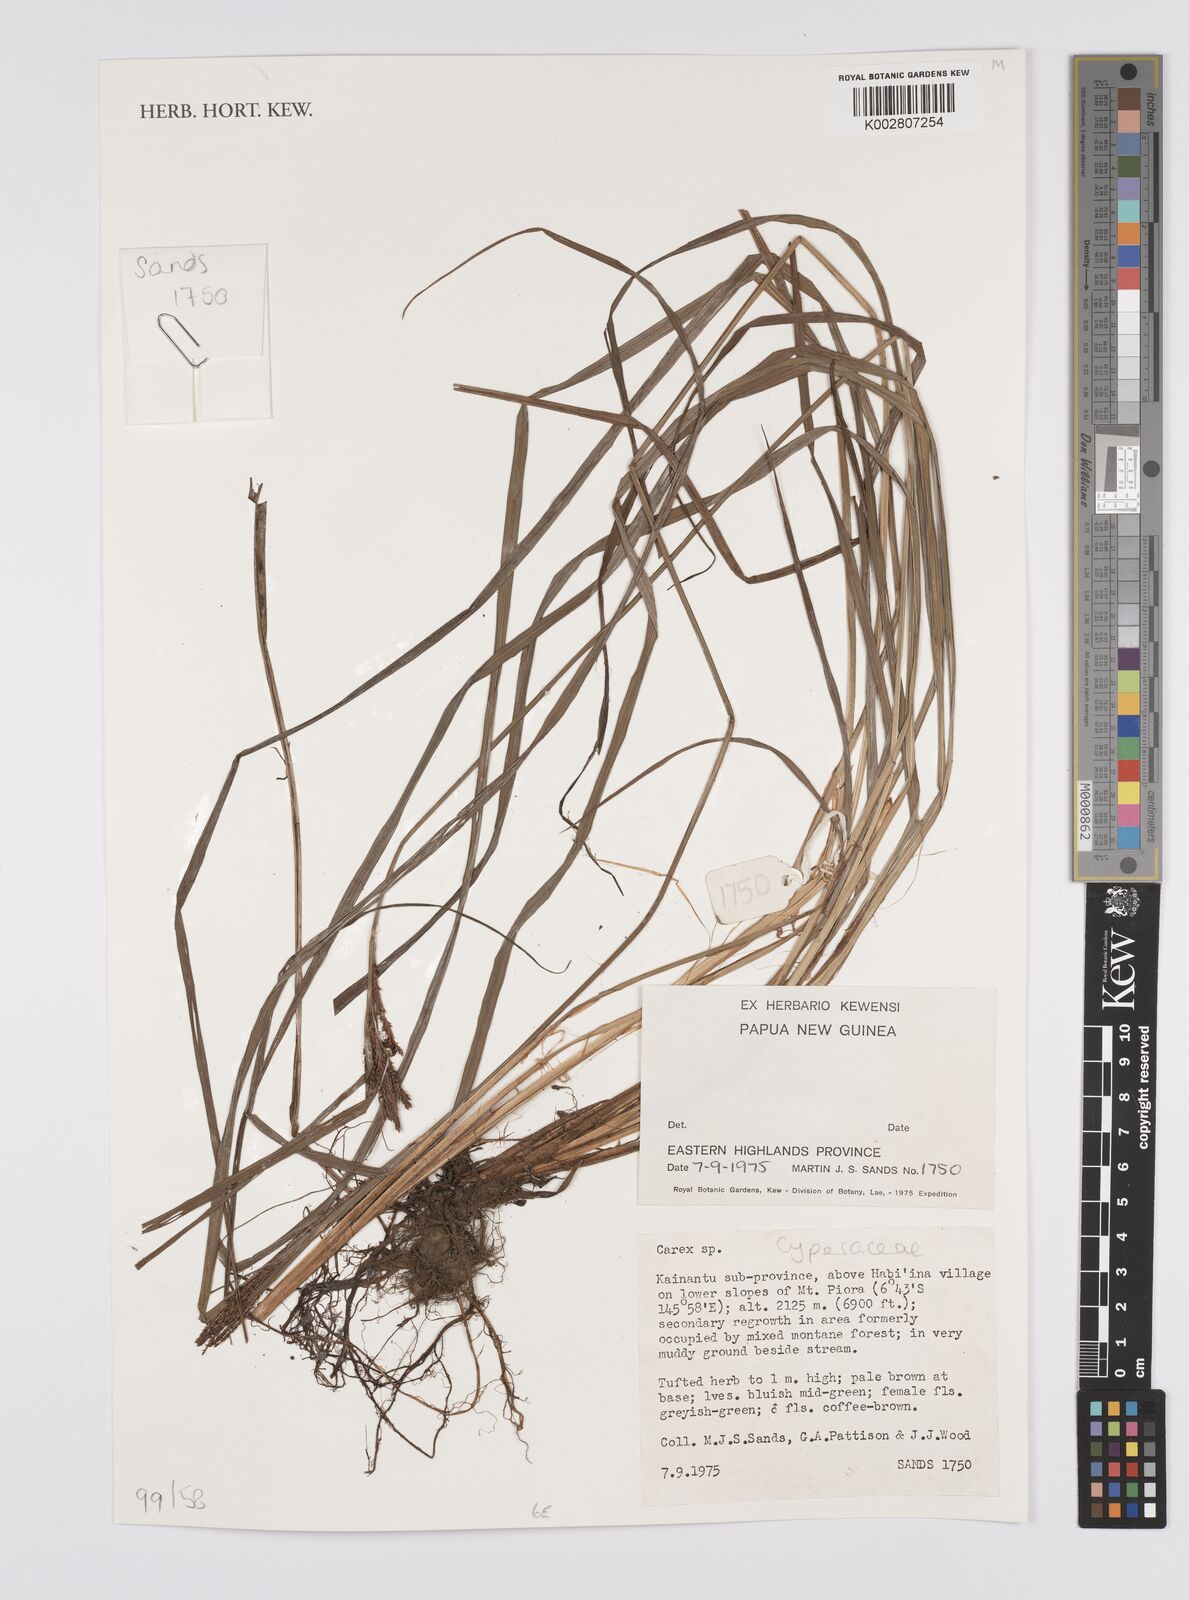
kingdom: Plantae
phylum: Tracheophyta
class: Liliopsida
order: Poales
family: Cyperaceae
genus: Carex
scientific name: Carex
